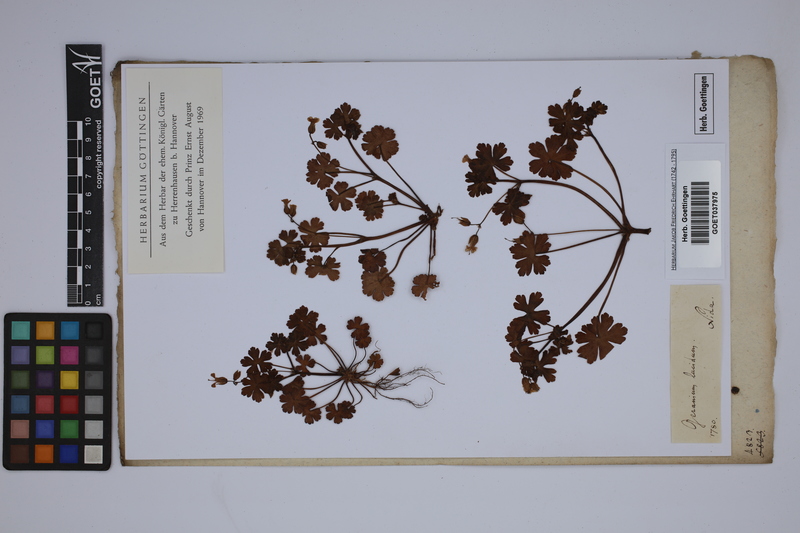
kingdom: Plantae
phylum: Tracheophyta
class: Magnoliopsida
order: Geraniales
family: Geraniaceae
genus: Geranium
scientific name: Geranium lucidum
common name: Shining crane's-bill
